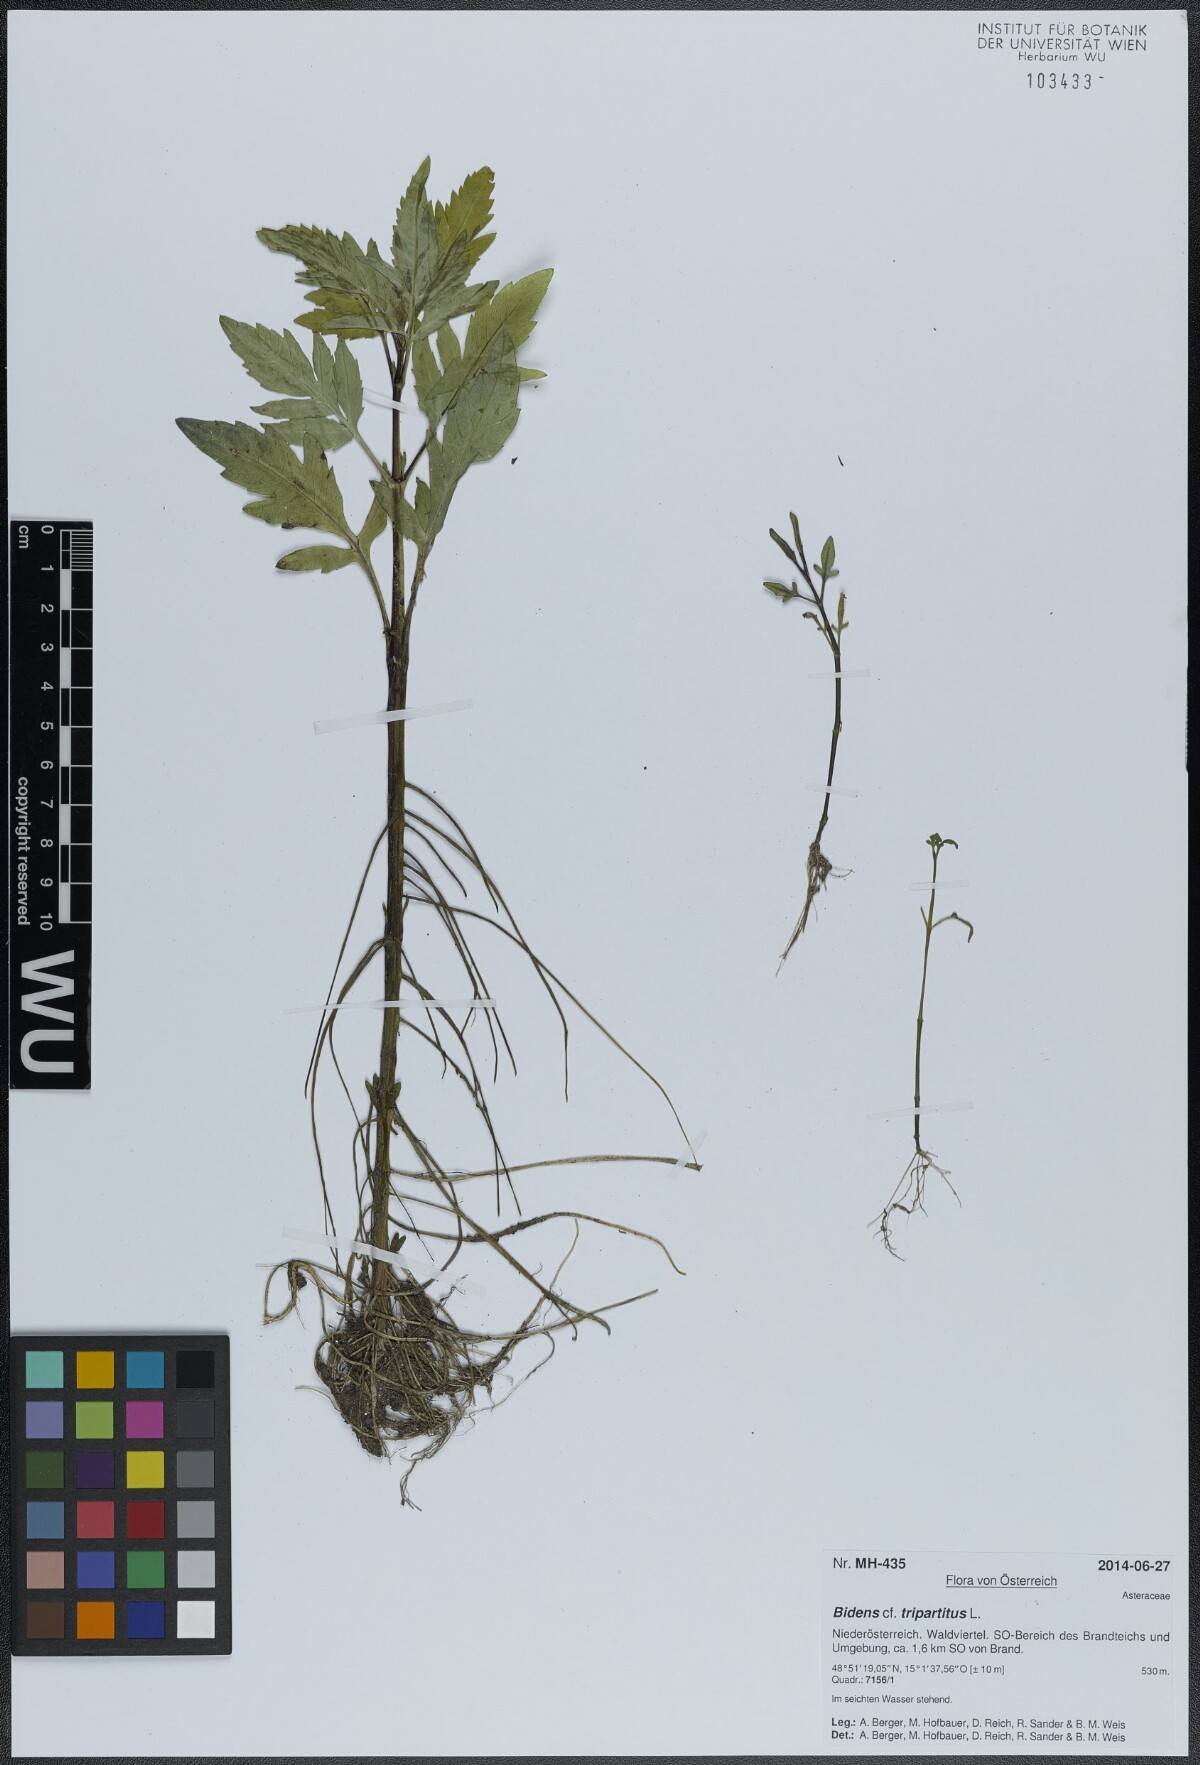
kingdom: Plantae
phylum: Tracheophyta
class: Magnoliopsida
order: Asterales
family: Asteraceae
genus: Bidens
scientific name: Bidens tripartita
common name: Trifid bur-marigold
